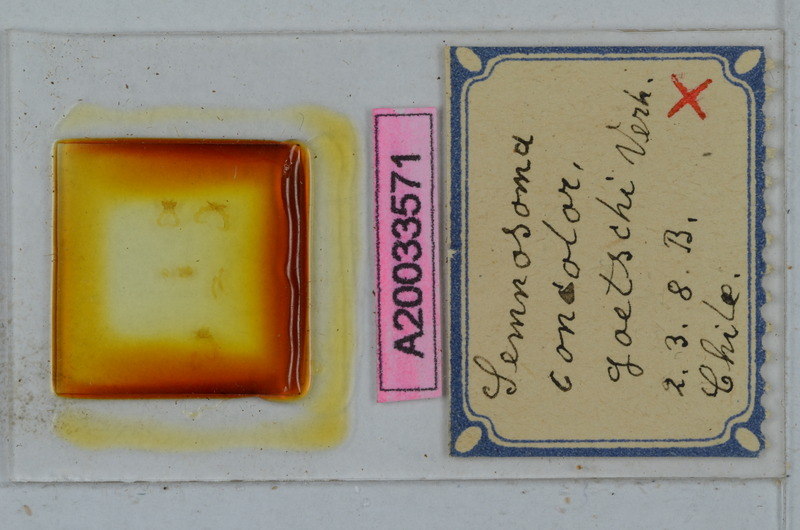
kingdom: Animalia
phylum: Arthropoda
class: Diplopoda
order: Polydesmida
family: Dalodesmidae
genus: Semnosoma
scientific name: Semnosoma concolor
